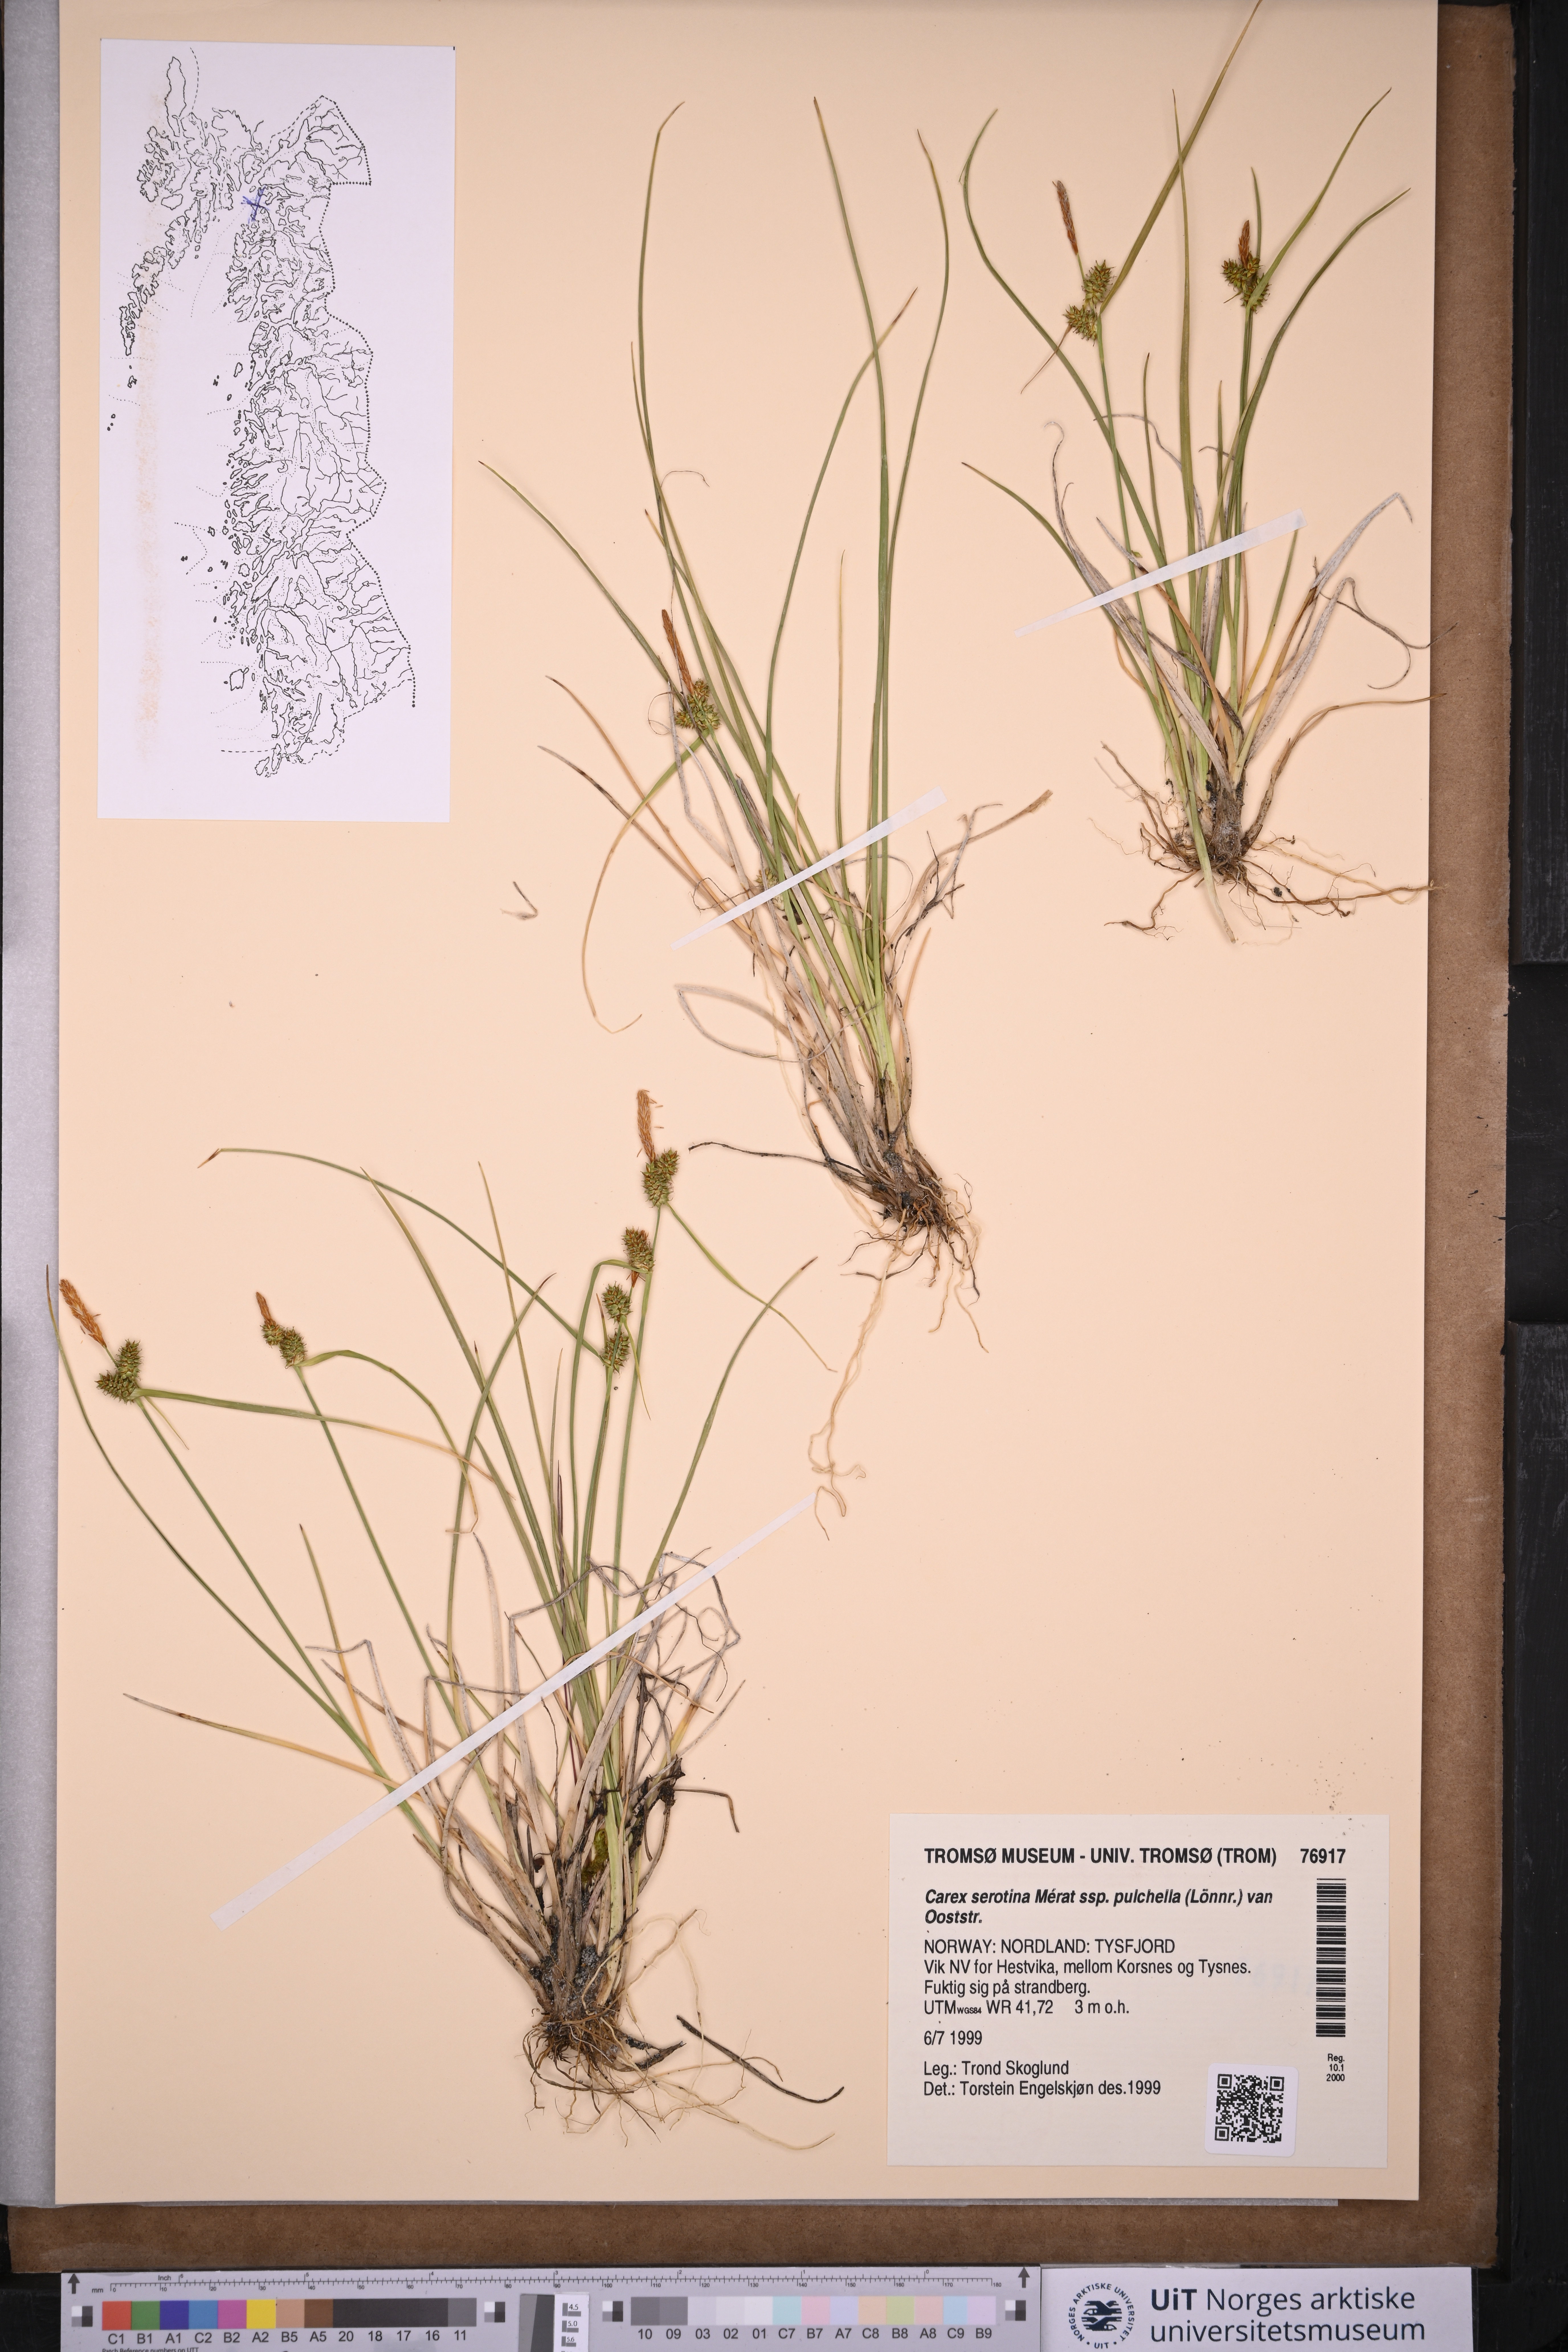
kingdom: Plantae
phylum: Tracheophyta
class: Liliopsida
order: Poales
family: Cyperaceae
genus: Carex
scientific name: Carex oederi
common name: Common & small-fruited yellow-sedge
